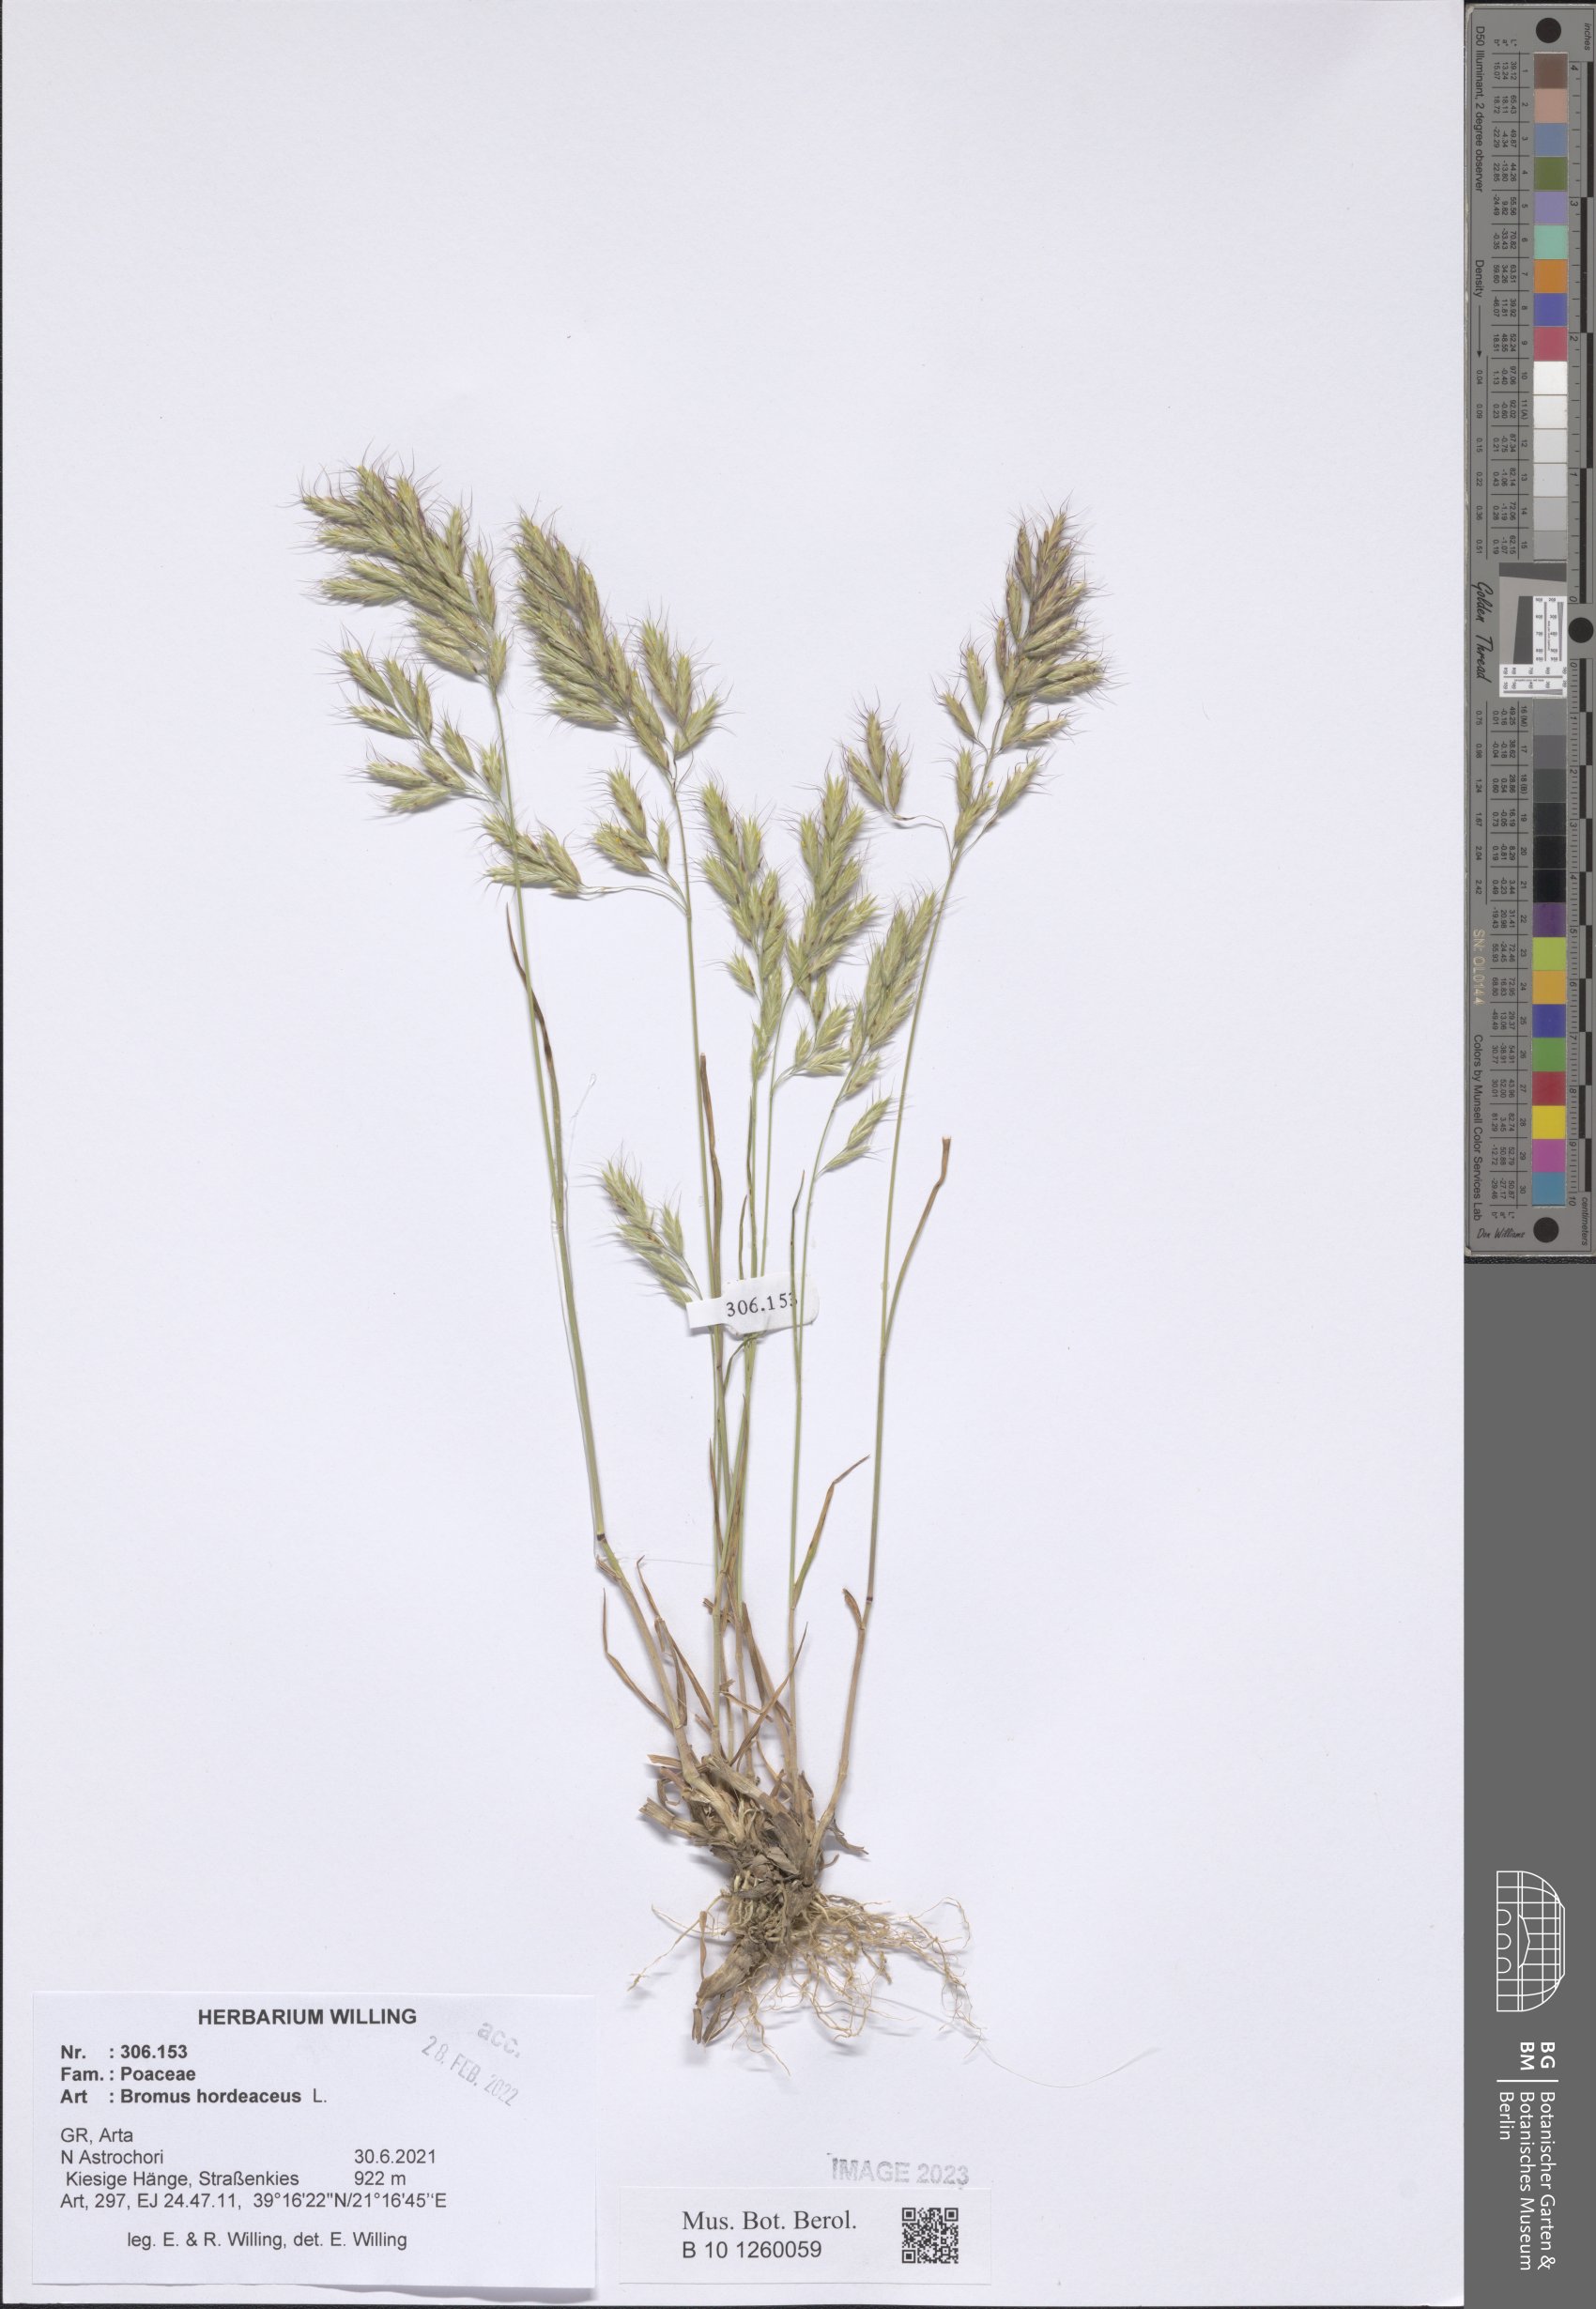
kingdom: Plantae
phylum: Tracheophyta
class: Liliopsida
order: Poales
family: Poaceae
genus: Bromus
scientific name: Bromus hordeaceus
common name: Soft brome
